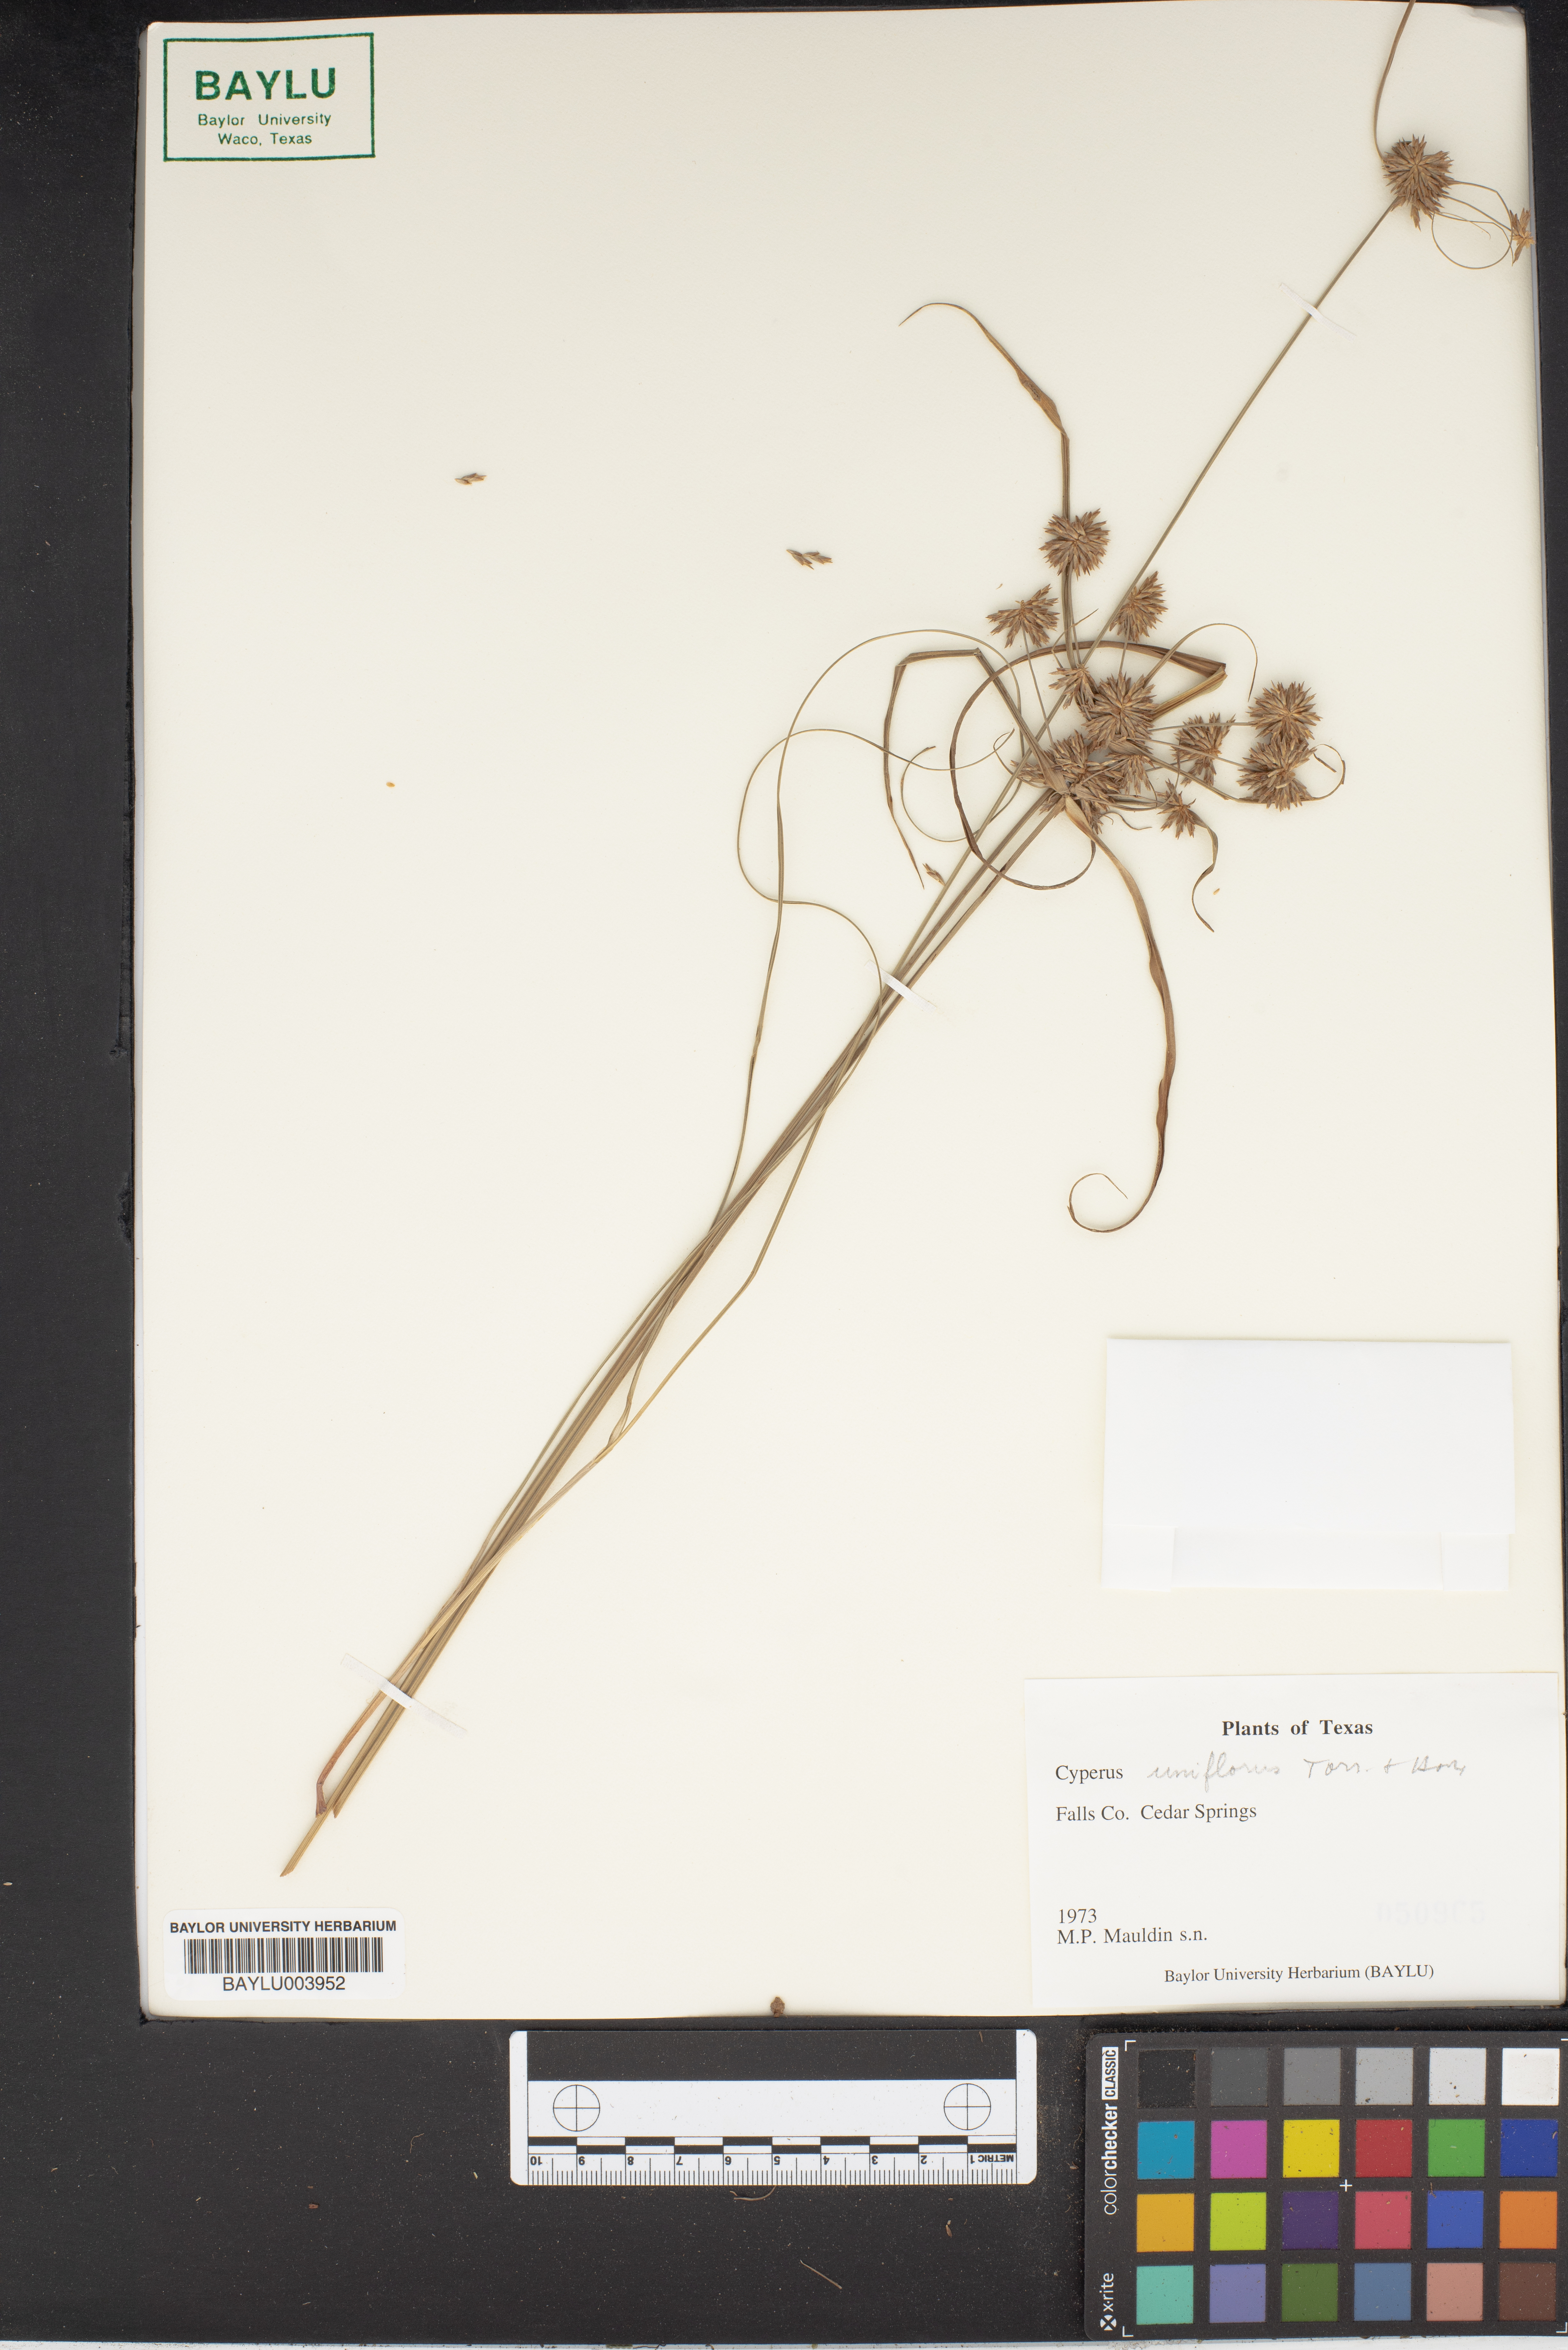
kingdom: Plantae
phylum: Tracheophyta
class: Liliopsida
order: Poales
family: Cyperaceae
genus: Cyperus
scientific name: Cyperus retroflexus
